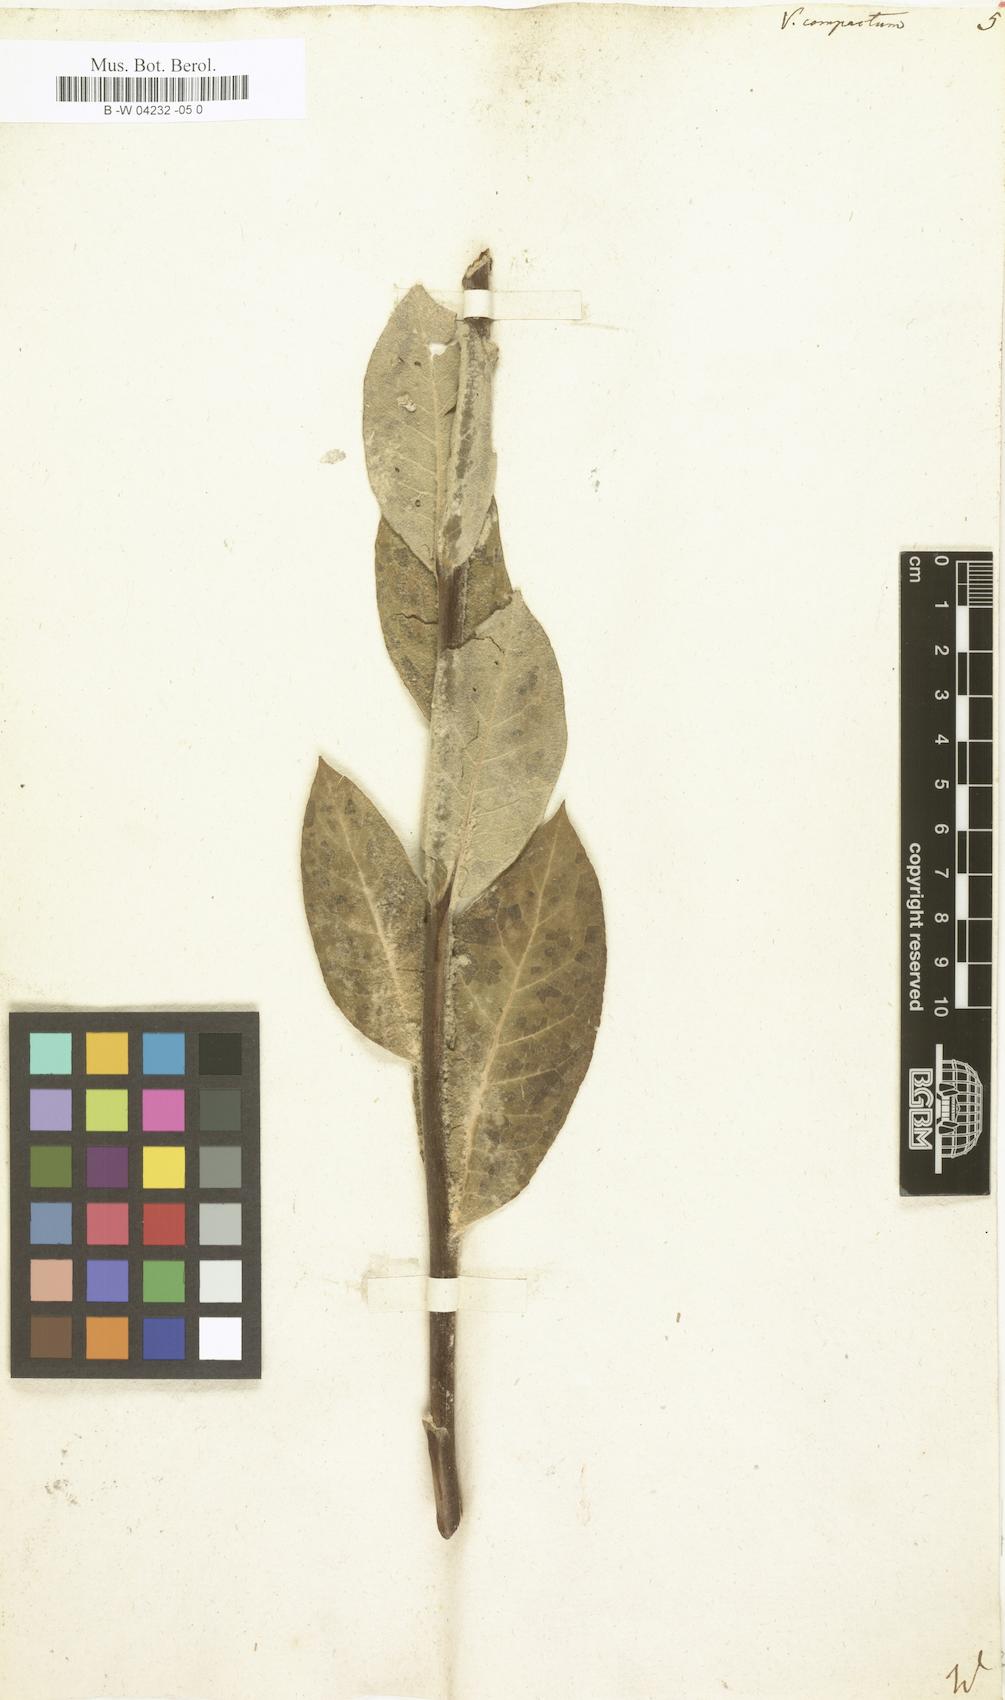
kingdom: Plantae
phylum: Tracheophyta
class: Magnoliopsida
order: Lamiales
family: Scrophulariaceae
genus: Verbascum
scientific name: Verbascum
